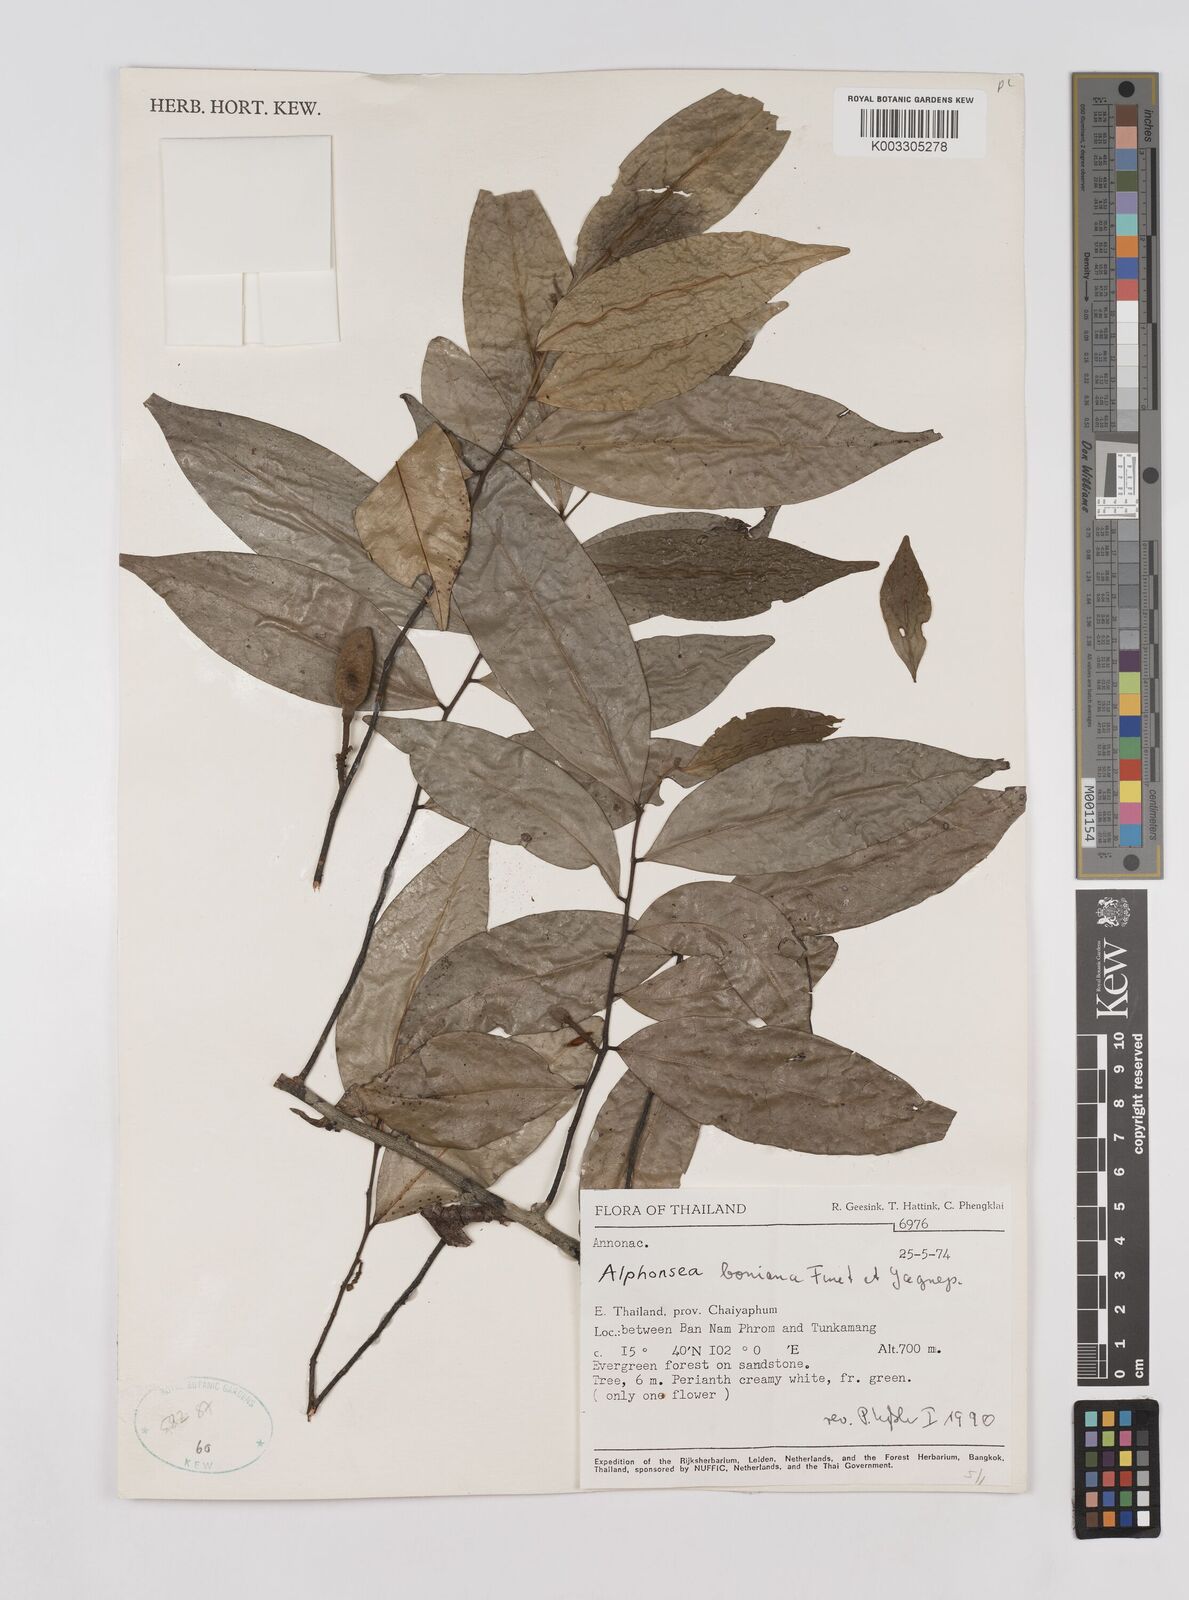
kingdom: Plantae
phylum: Tracheophyta
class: Magnoliopsida
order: Magnoliales
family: Annonaceae
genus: Alphonsea
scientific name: Alphonsea boniana
